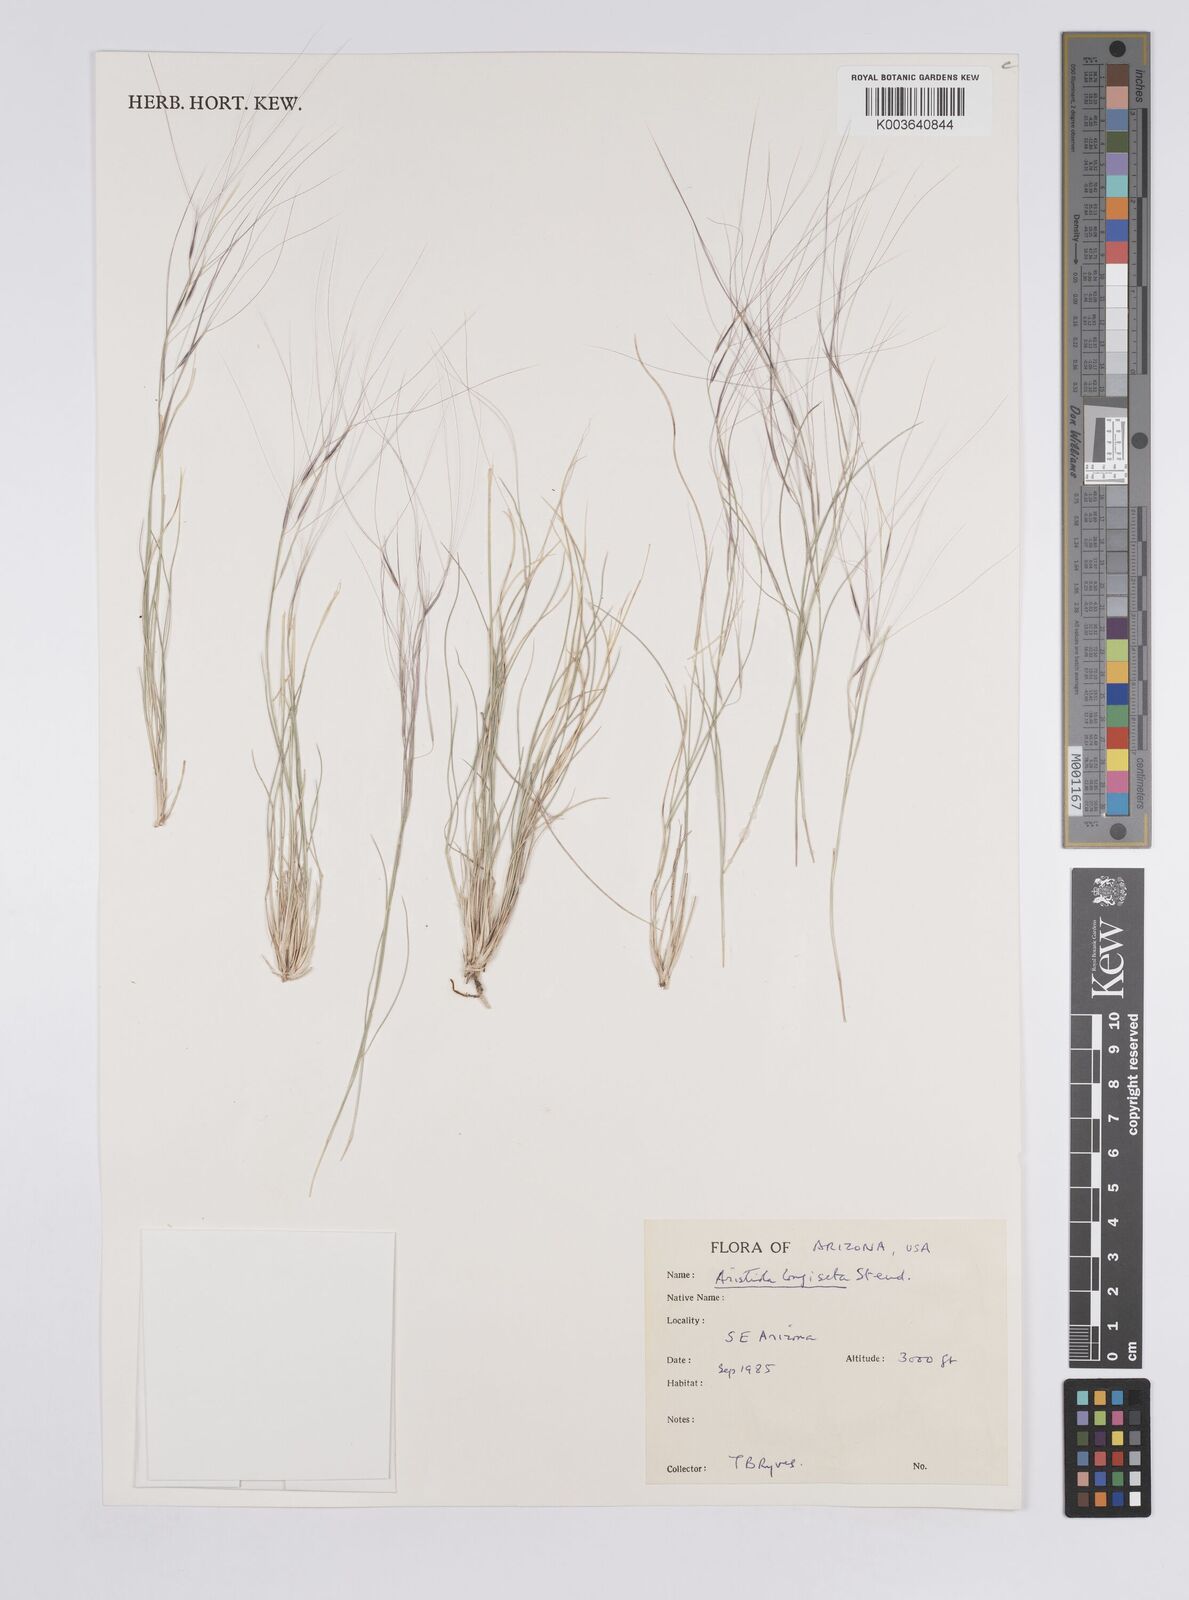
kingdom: Plantae
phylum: Tracheophyta
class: Liliopsida
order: Poales
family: Poaceae
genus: Aristida
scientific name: Aristida purpurea
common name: Purple threeawn
